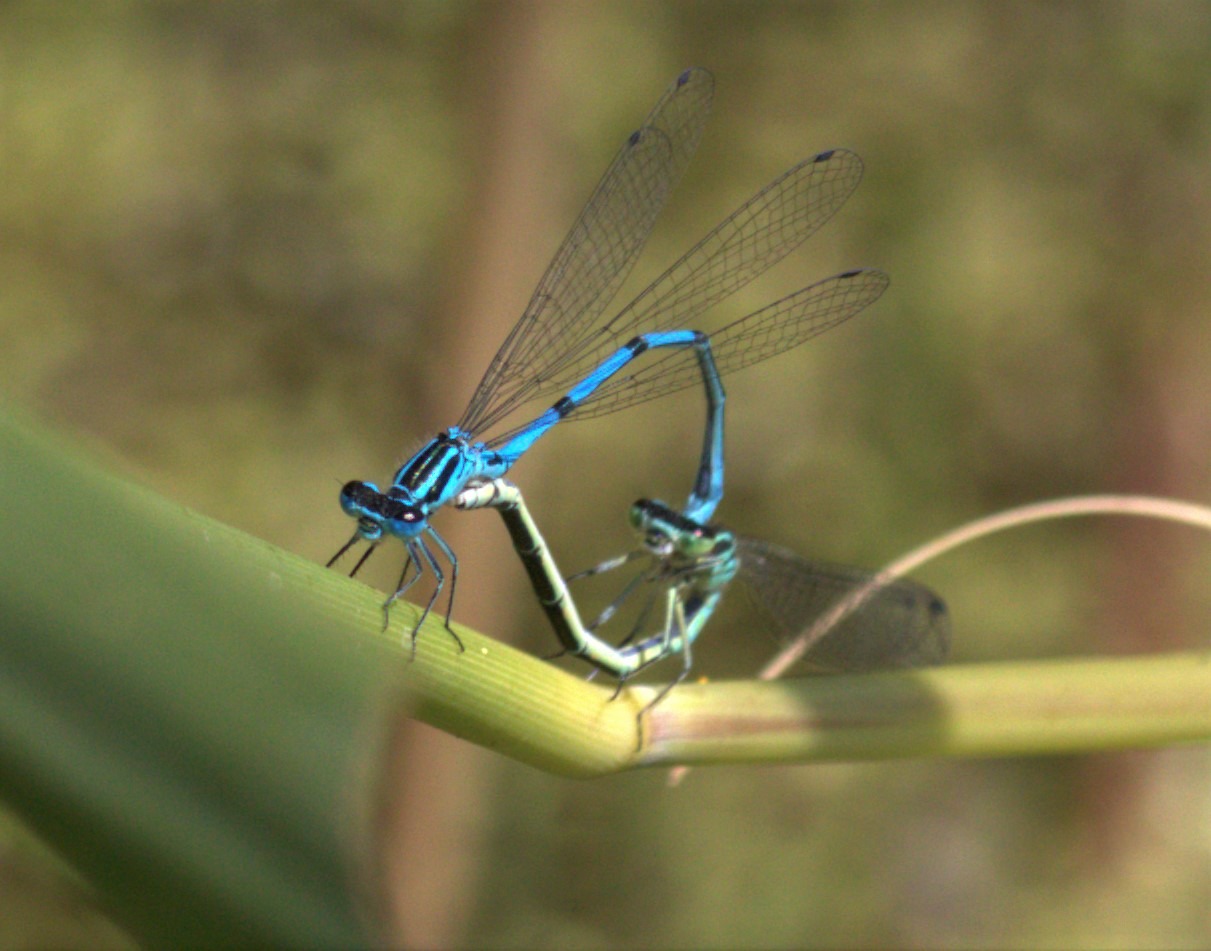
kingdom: Animalia
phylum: Arthropoda
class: Insecta
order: Odonata
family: Coenagrionidae
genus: Coenagrion
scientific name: Coenagrion puella
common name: Hestesko-vandnymfe
